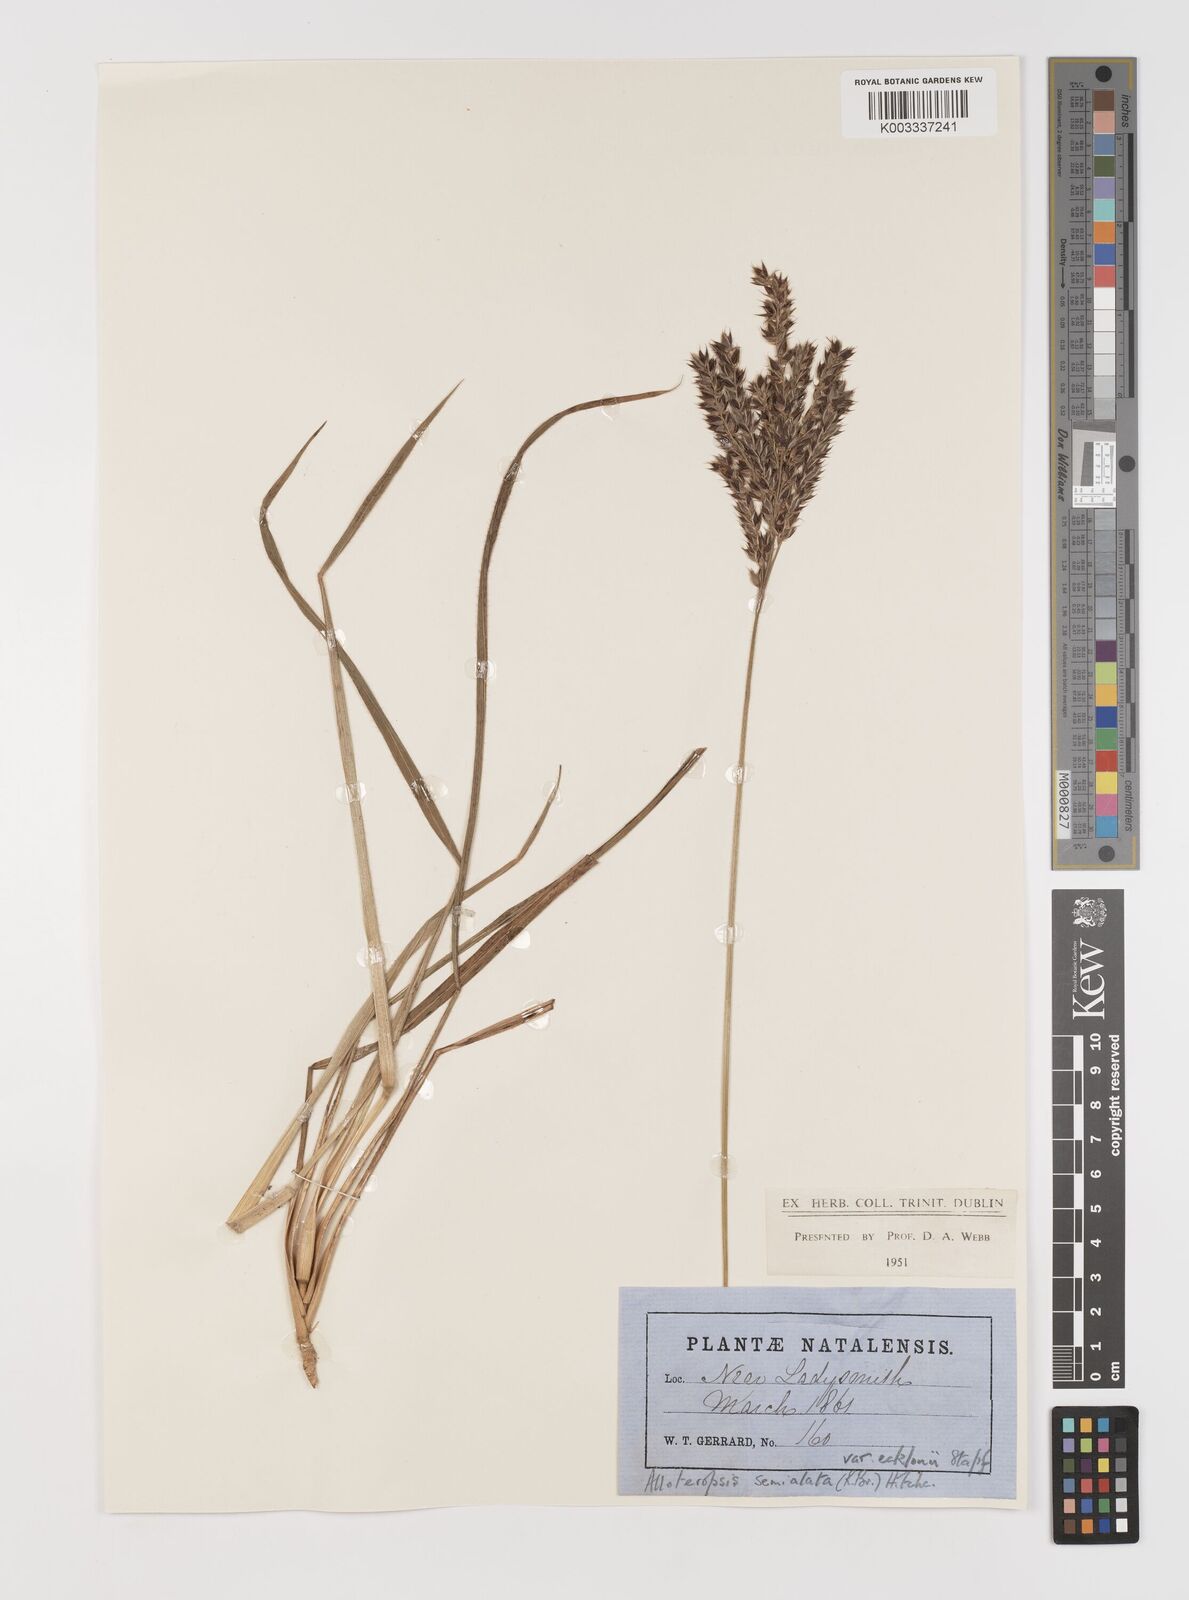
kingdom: Plantae
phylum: Tracheophyta
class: Liliopsida
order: Poales
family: Poaceae
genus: Alloteropsis
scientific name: Alloteropsis semialata
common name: Cockatoo grass
